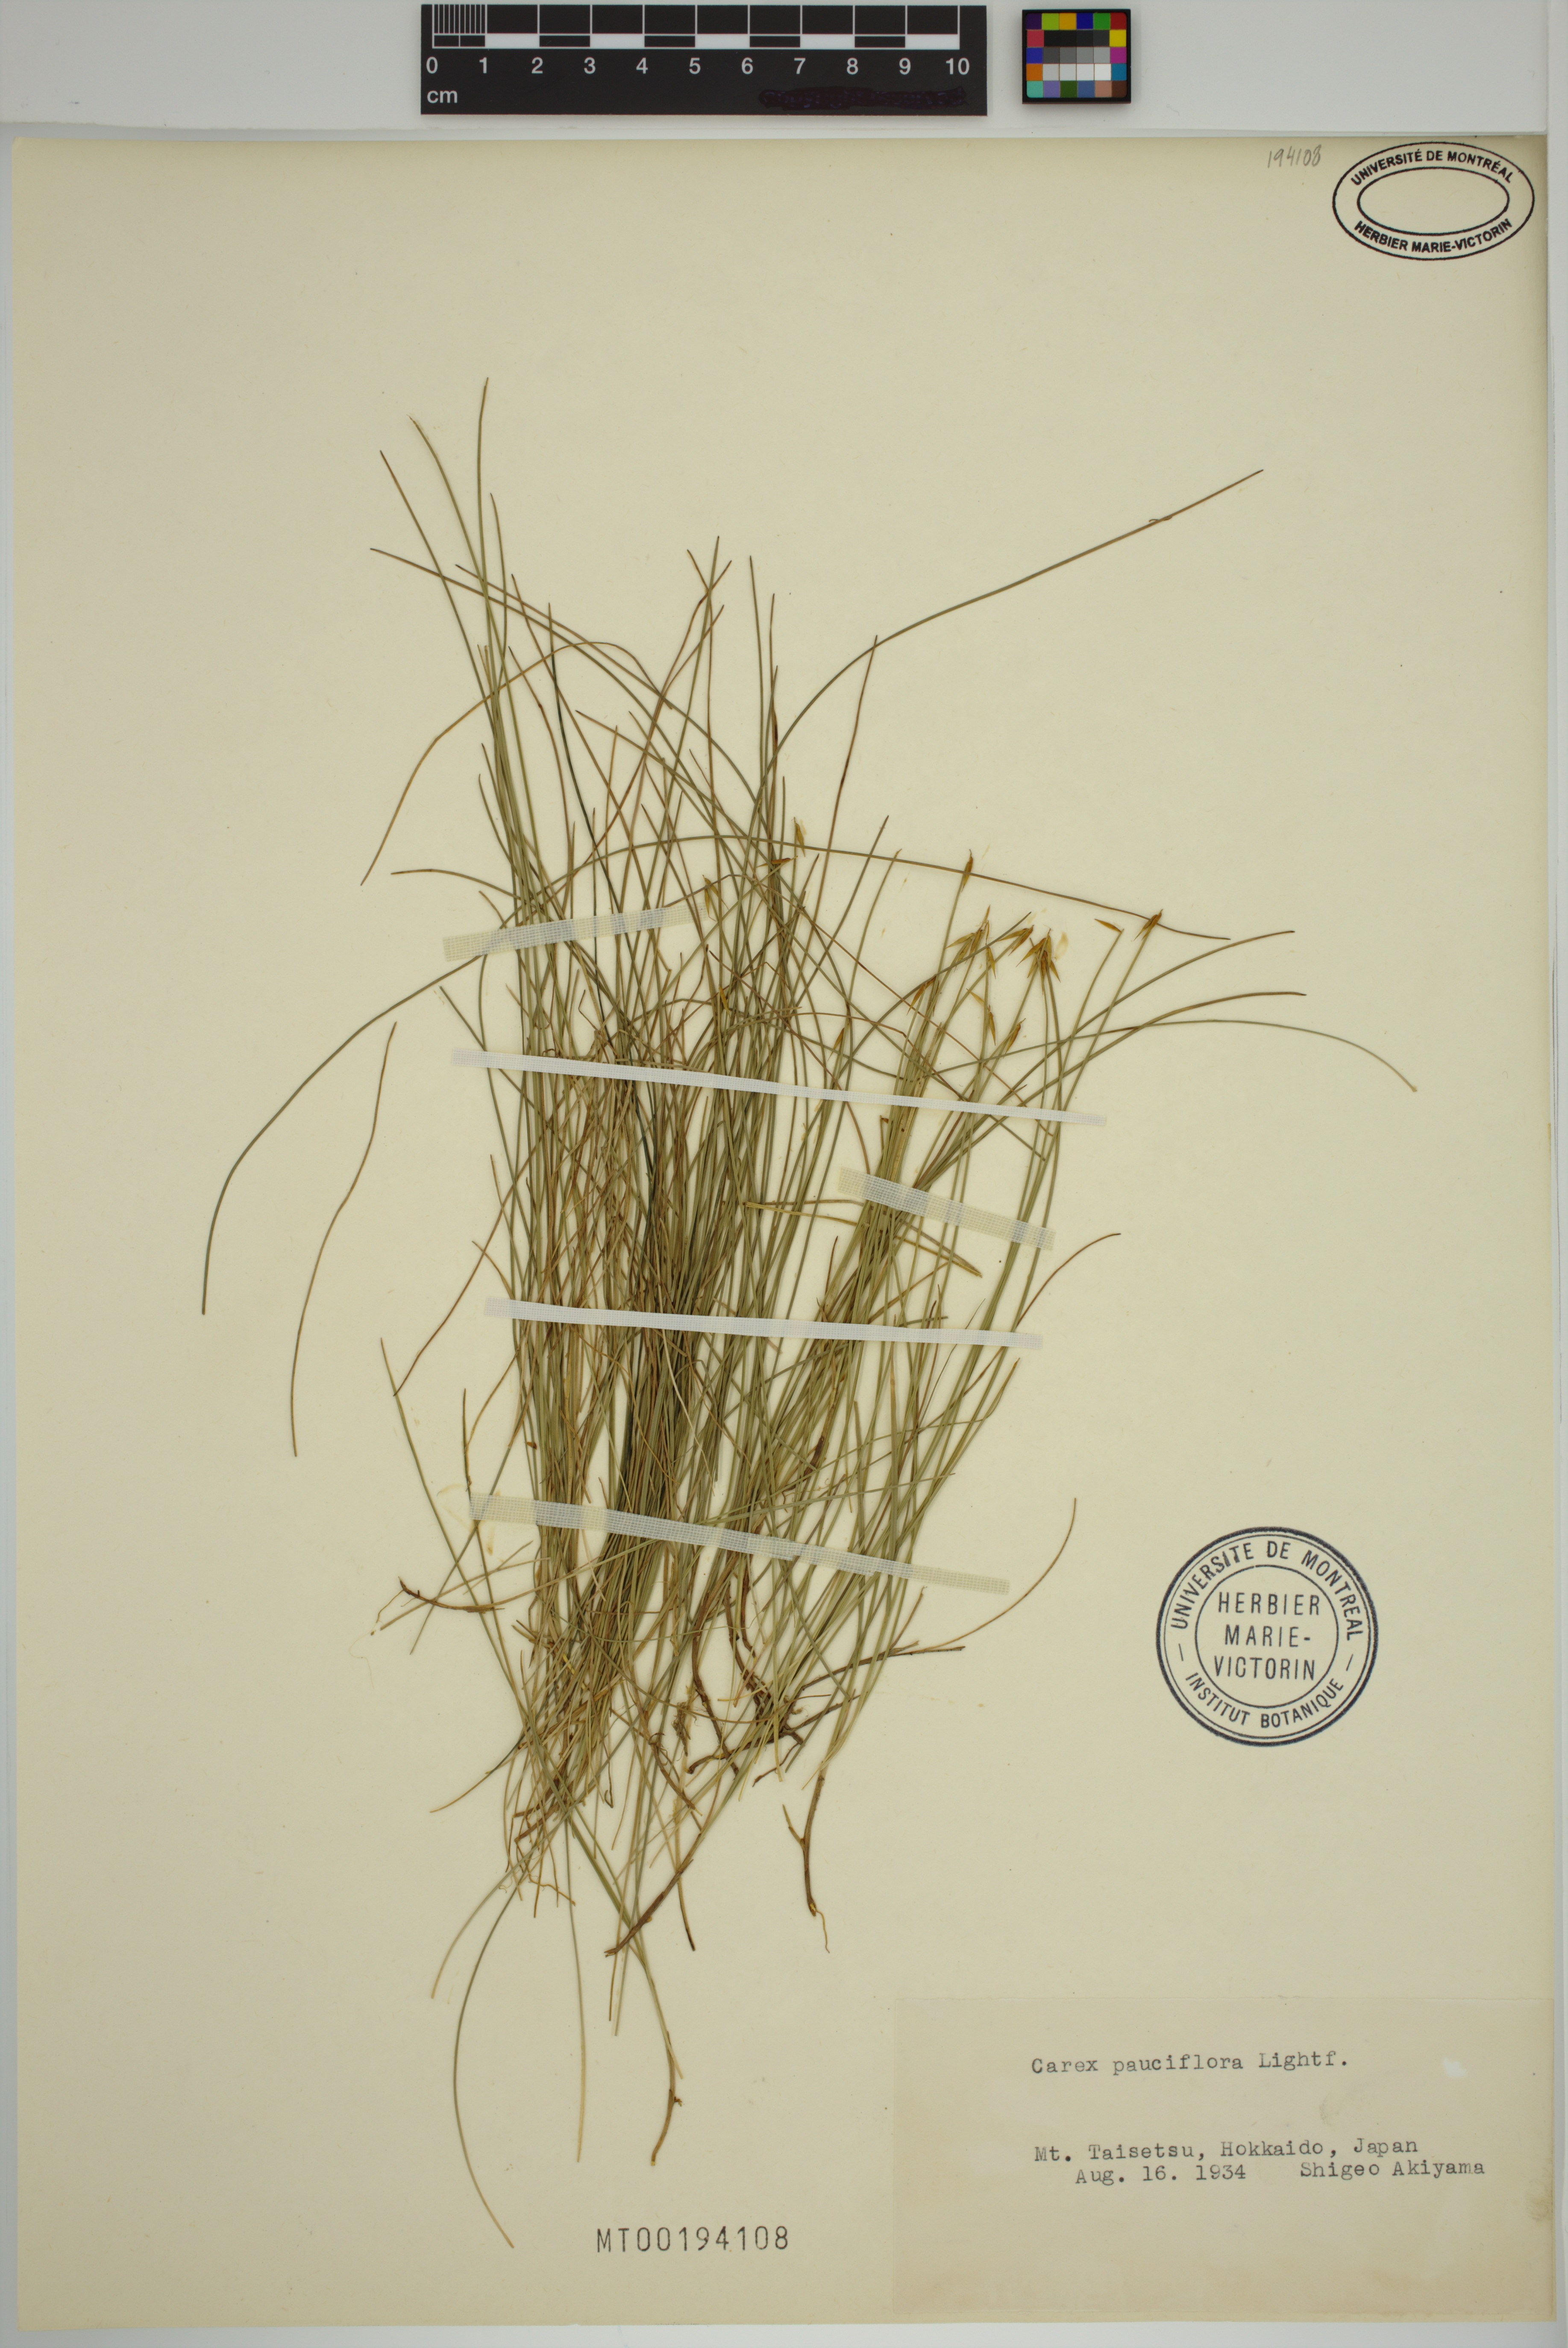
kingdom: Plantae
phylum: Tracheophyta
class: Liliopsida
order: Poales
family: Cyperaceae
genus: Carex
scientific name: Carex pauciflora
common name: Few-flowered sedge
